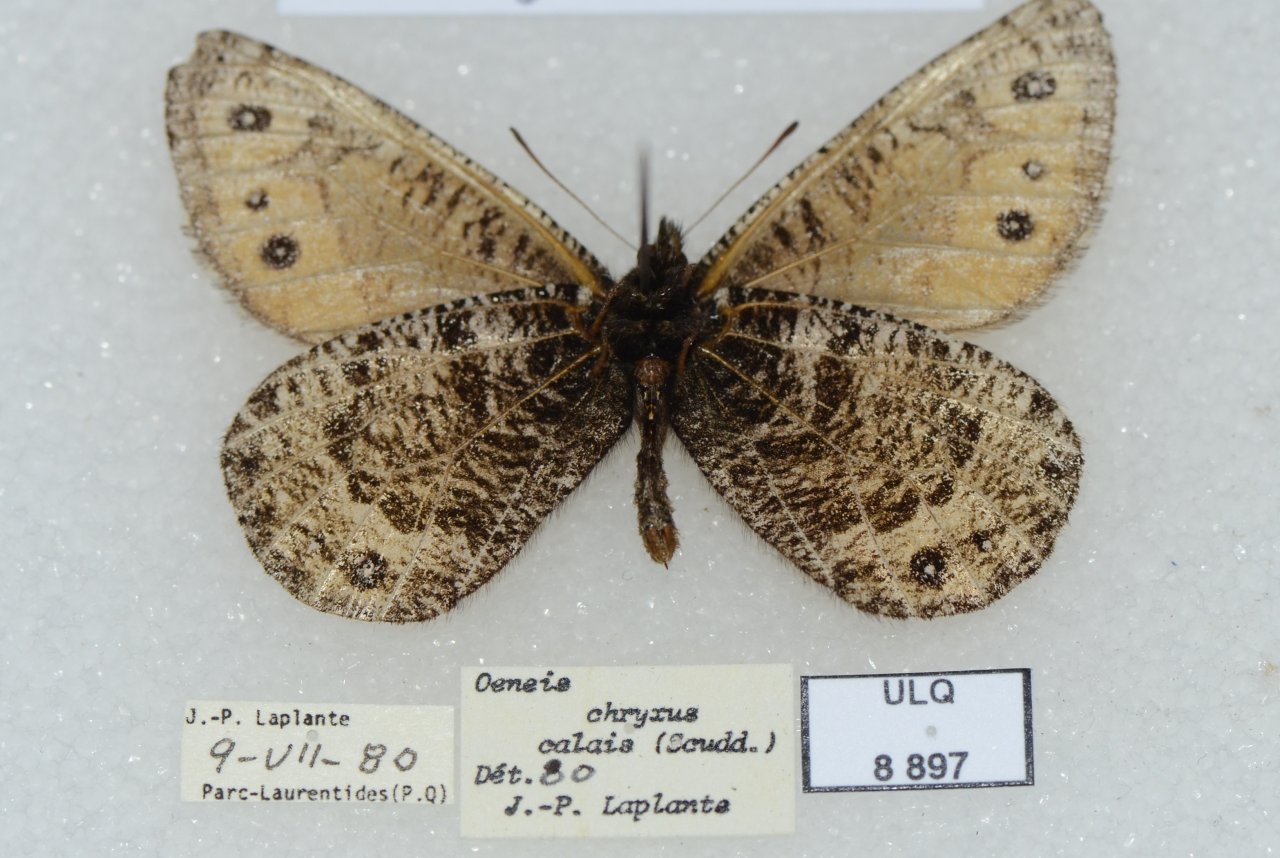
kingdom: Animalia
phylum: Arthropoda
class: Insecta
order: Lepidoptera
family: Nymphalidae
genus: Oeneis
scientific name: Oeneis chryxus
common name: Chryxus Arctic
